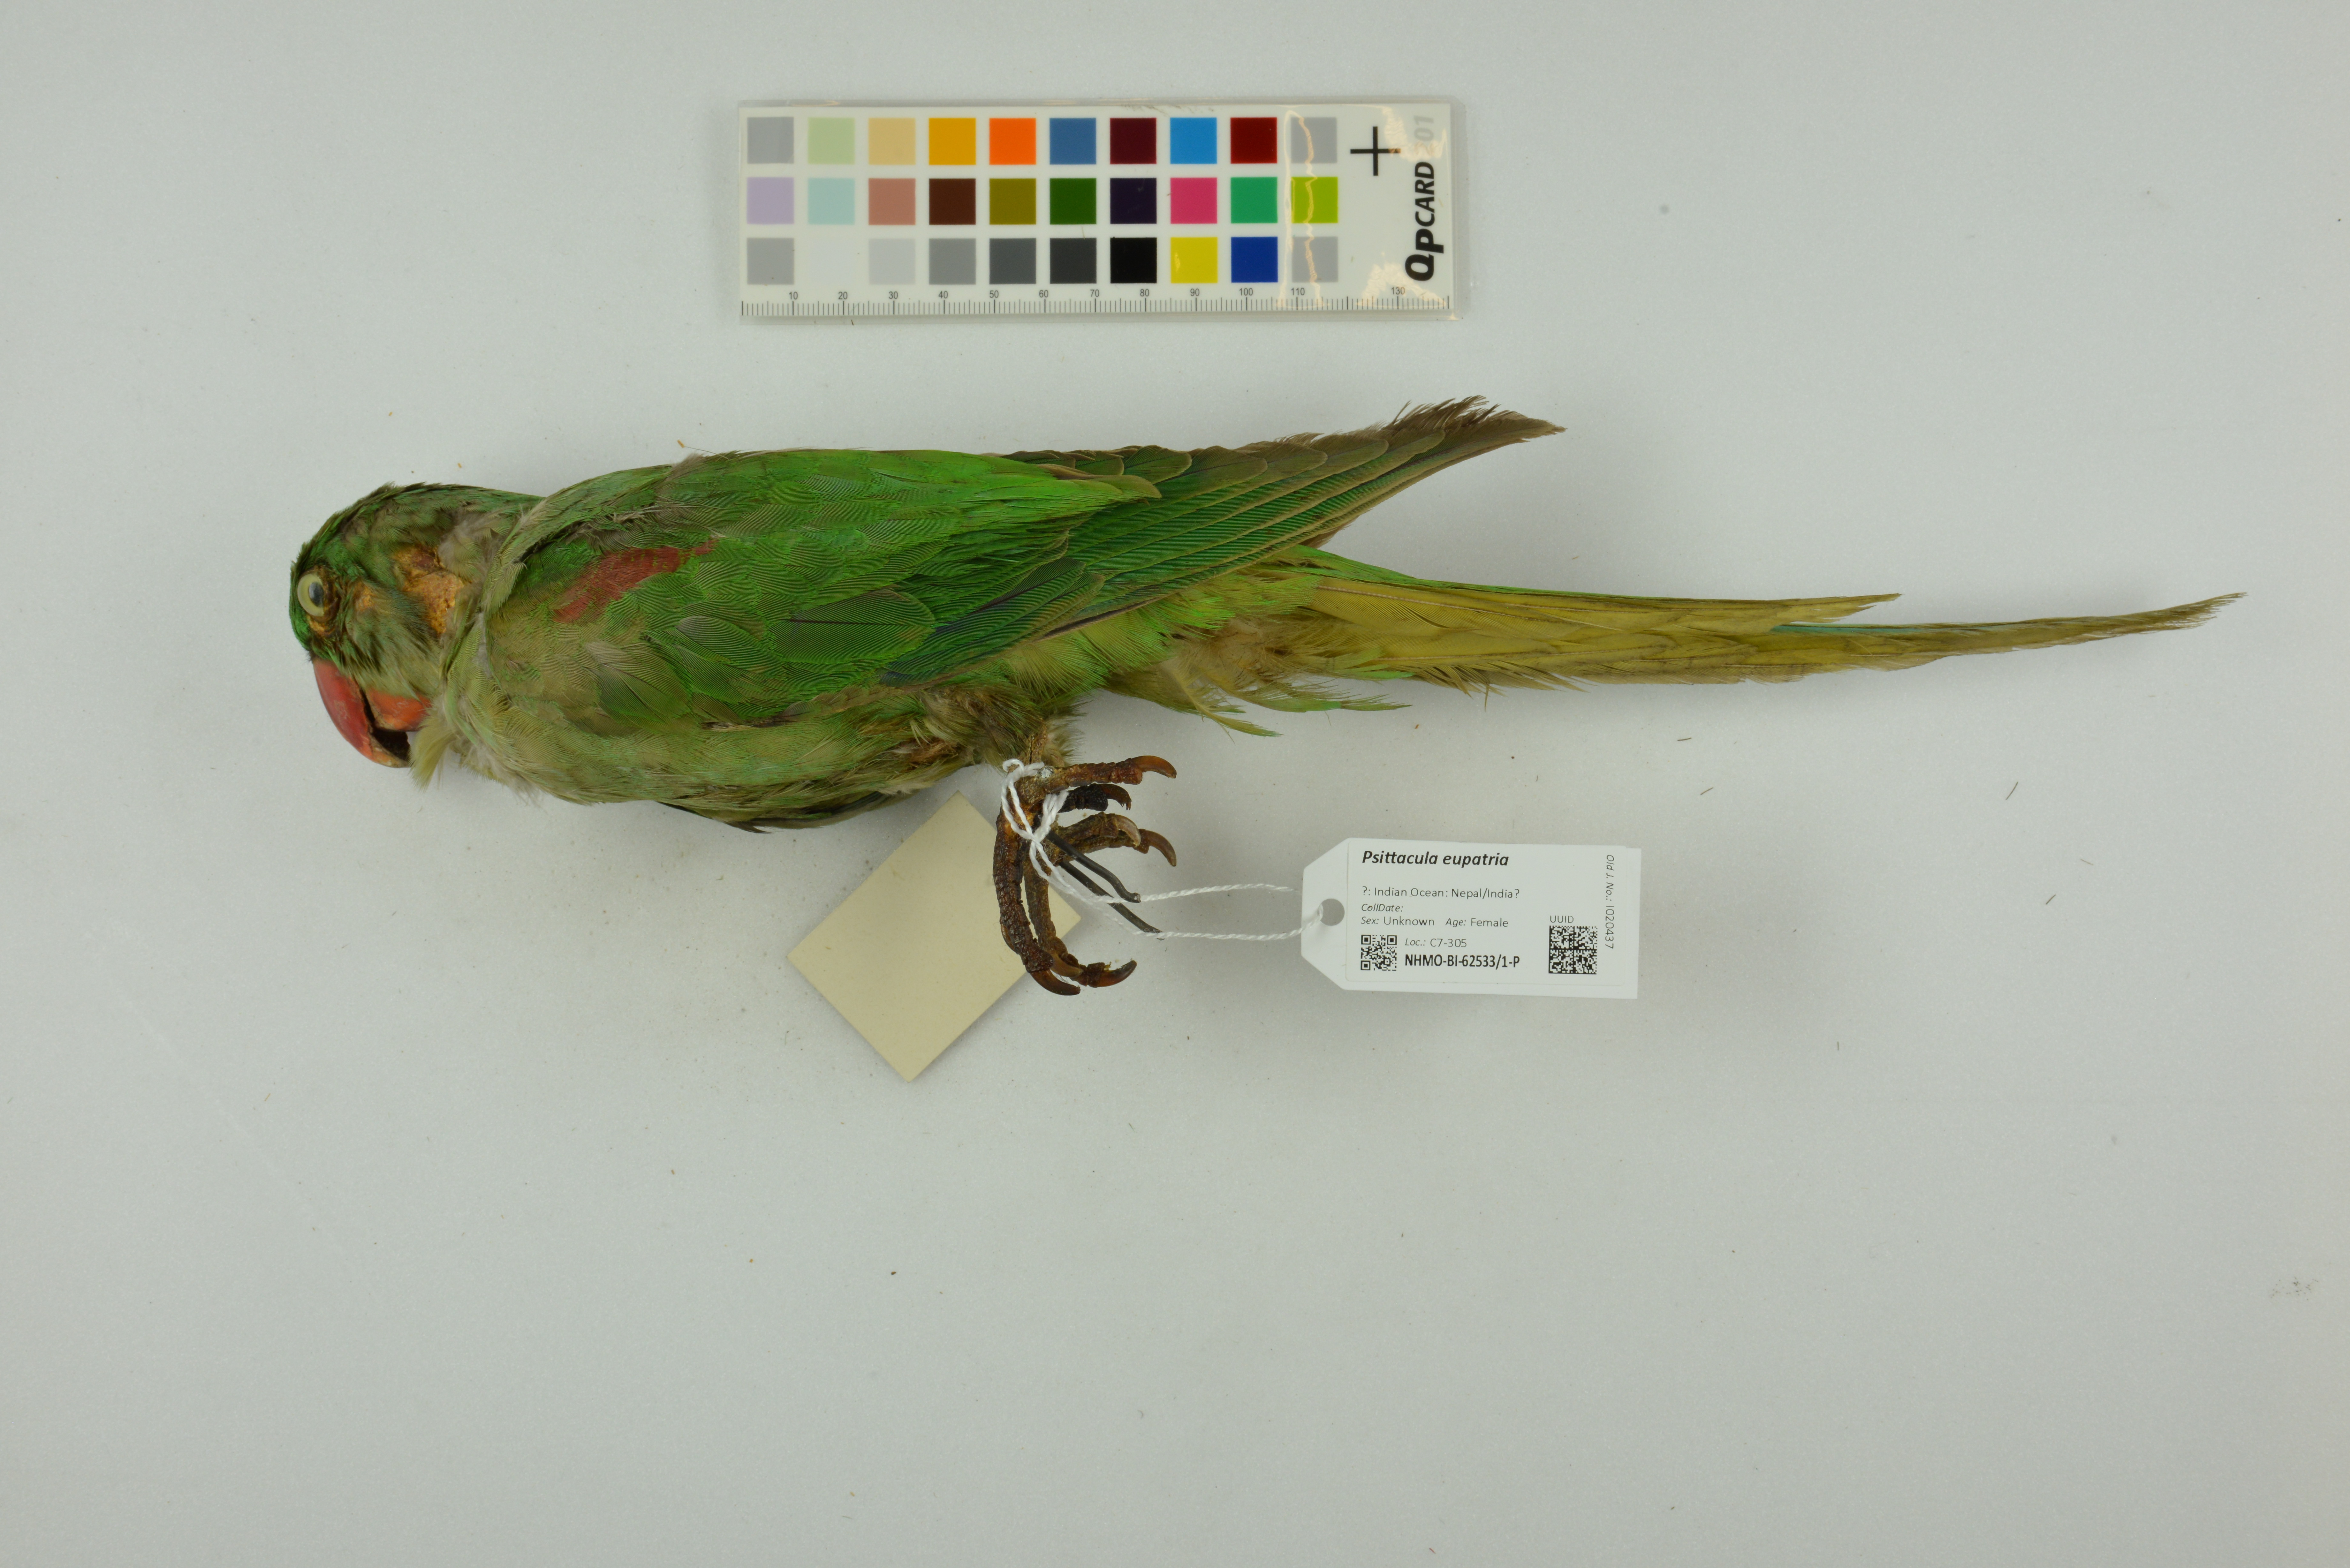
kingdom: Animalia
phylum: Chordata
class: Aves
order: Psittaciformes
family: Psittacidae
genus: Psittacula
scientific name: Psittacula eupatria
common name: Alexandrine parakeet
